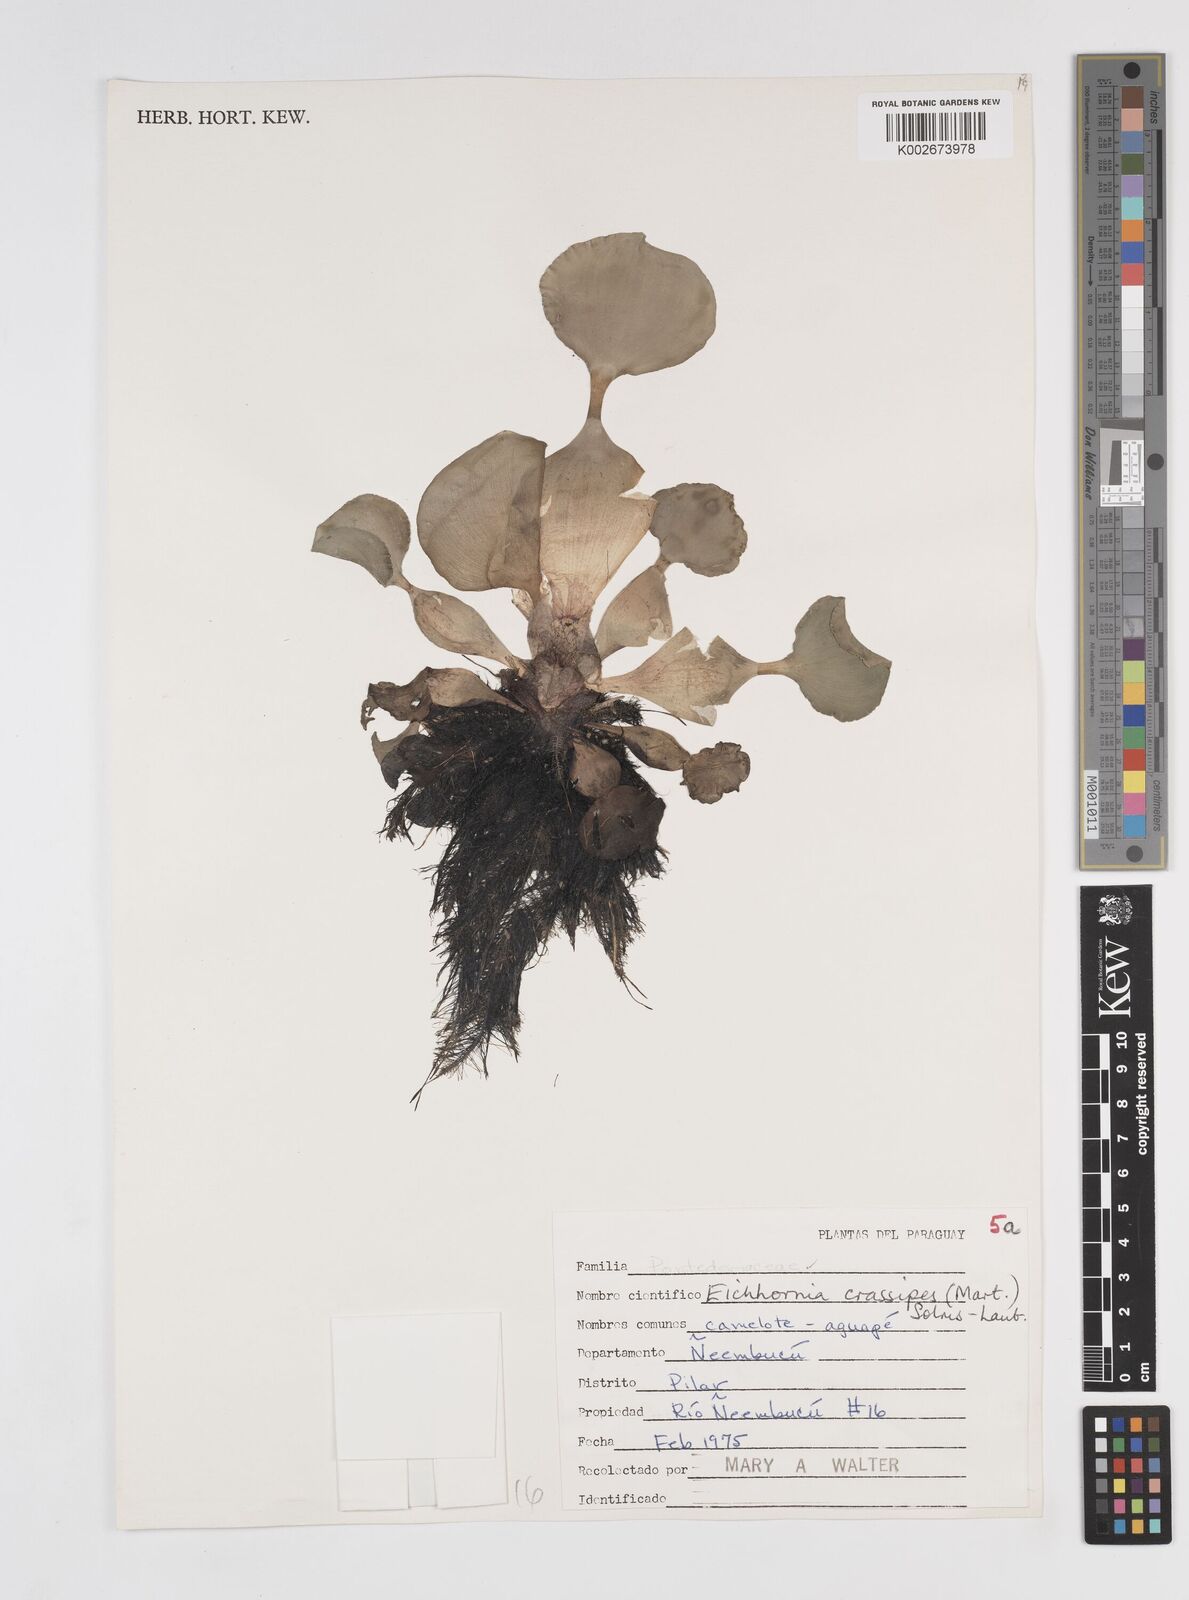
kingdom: Plantae
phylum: Tracheophyta
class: Liliopsida
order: Commelinales
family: Pontederiaceae
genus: Pontederia
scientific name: Pontederia crassipes
